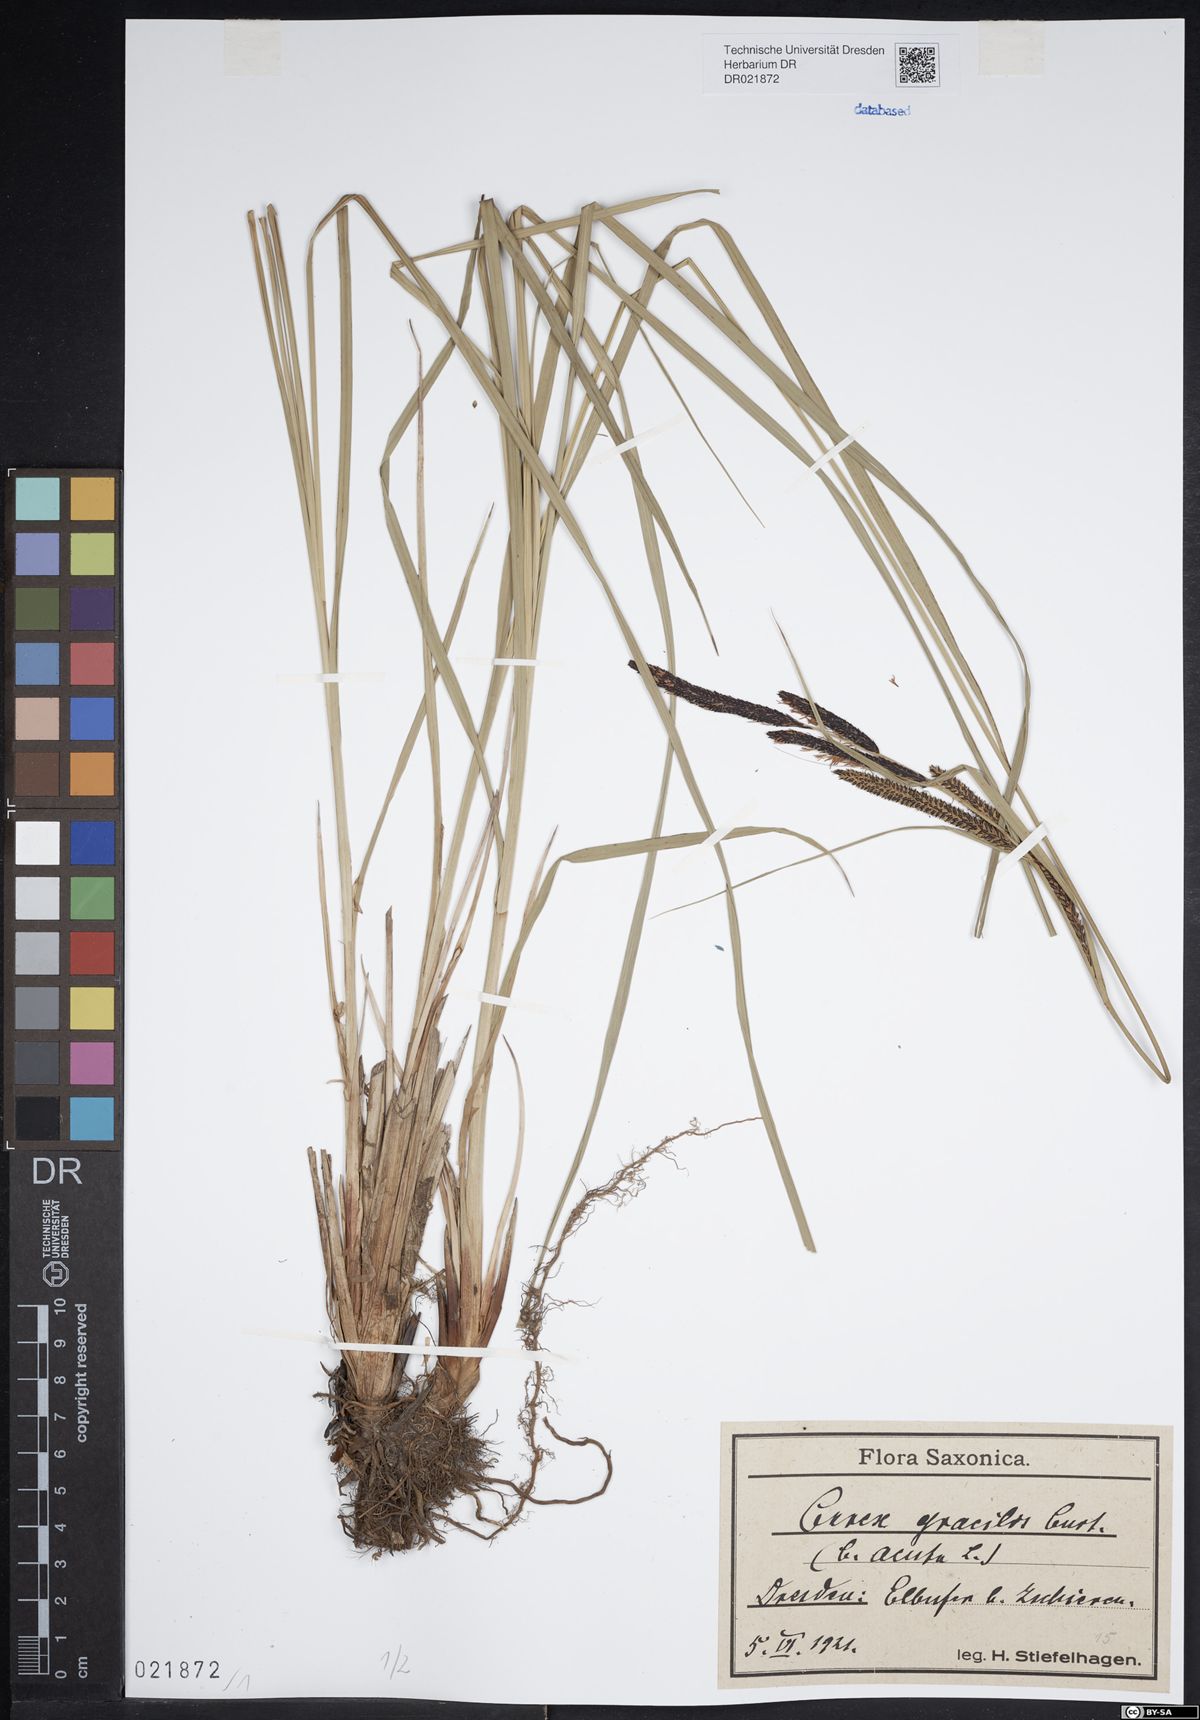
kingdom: Plantae
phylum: Tracheophyta
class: Liliopsida
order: Poales
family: Cyperaceae
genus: Carex
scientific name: Carex acuta
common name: Slender tufted-sedge
